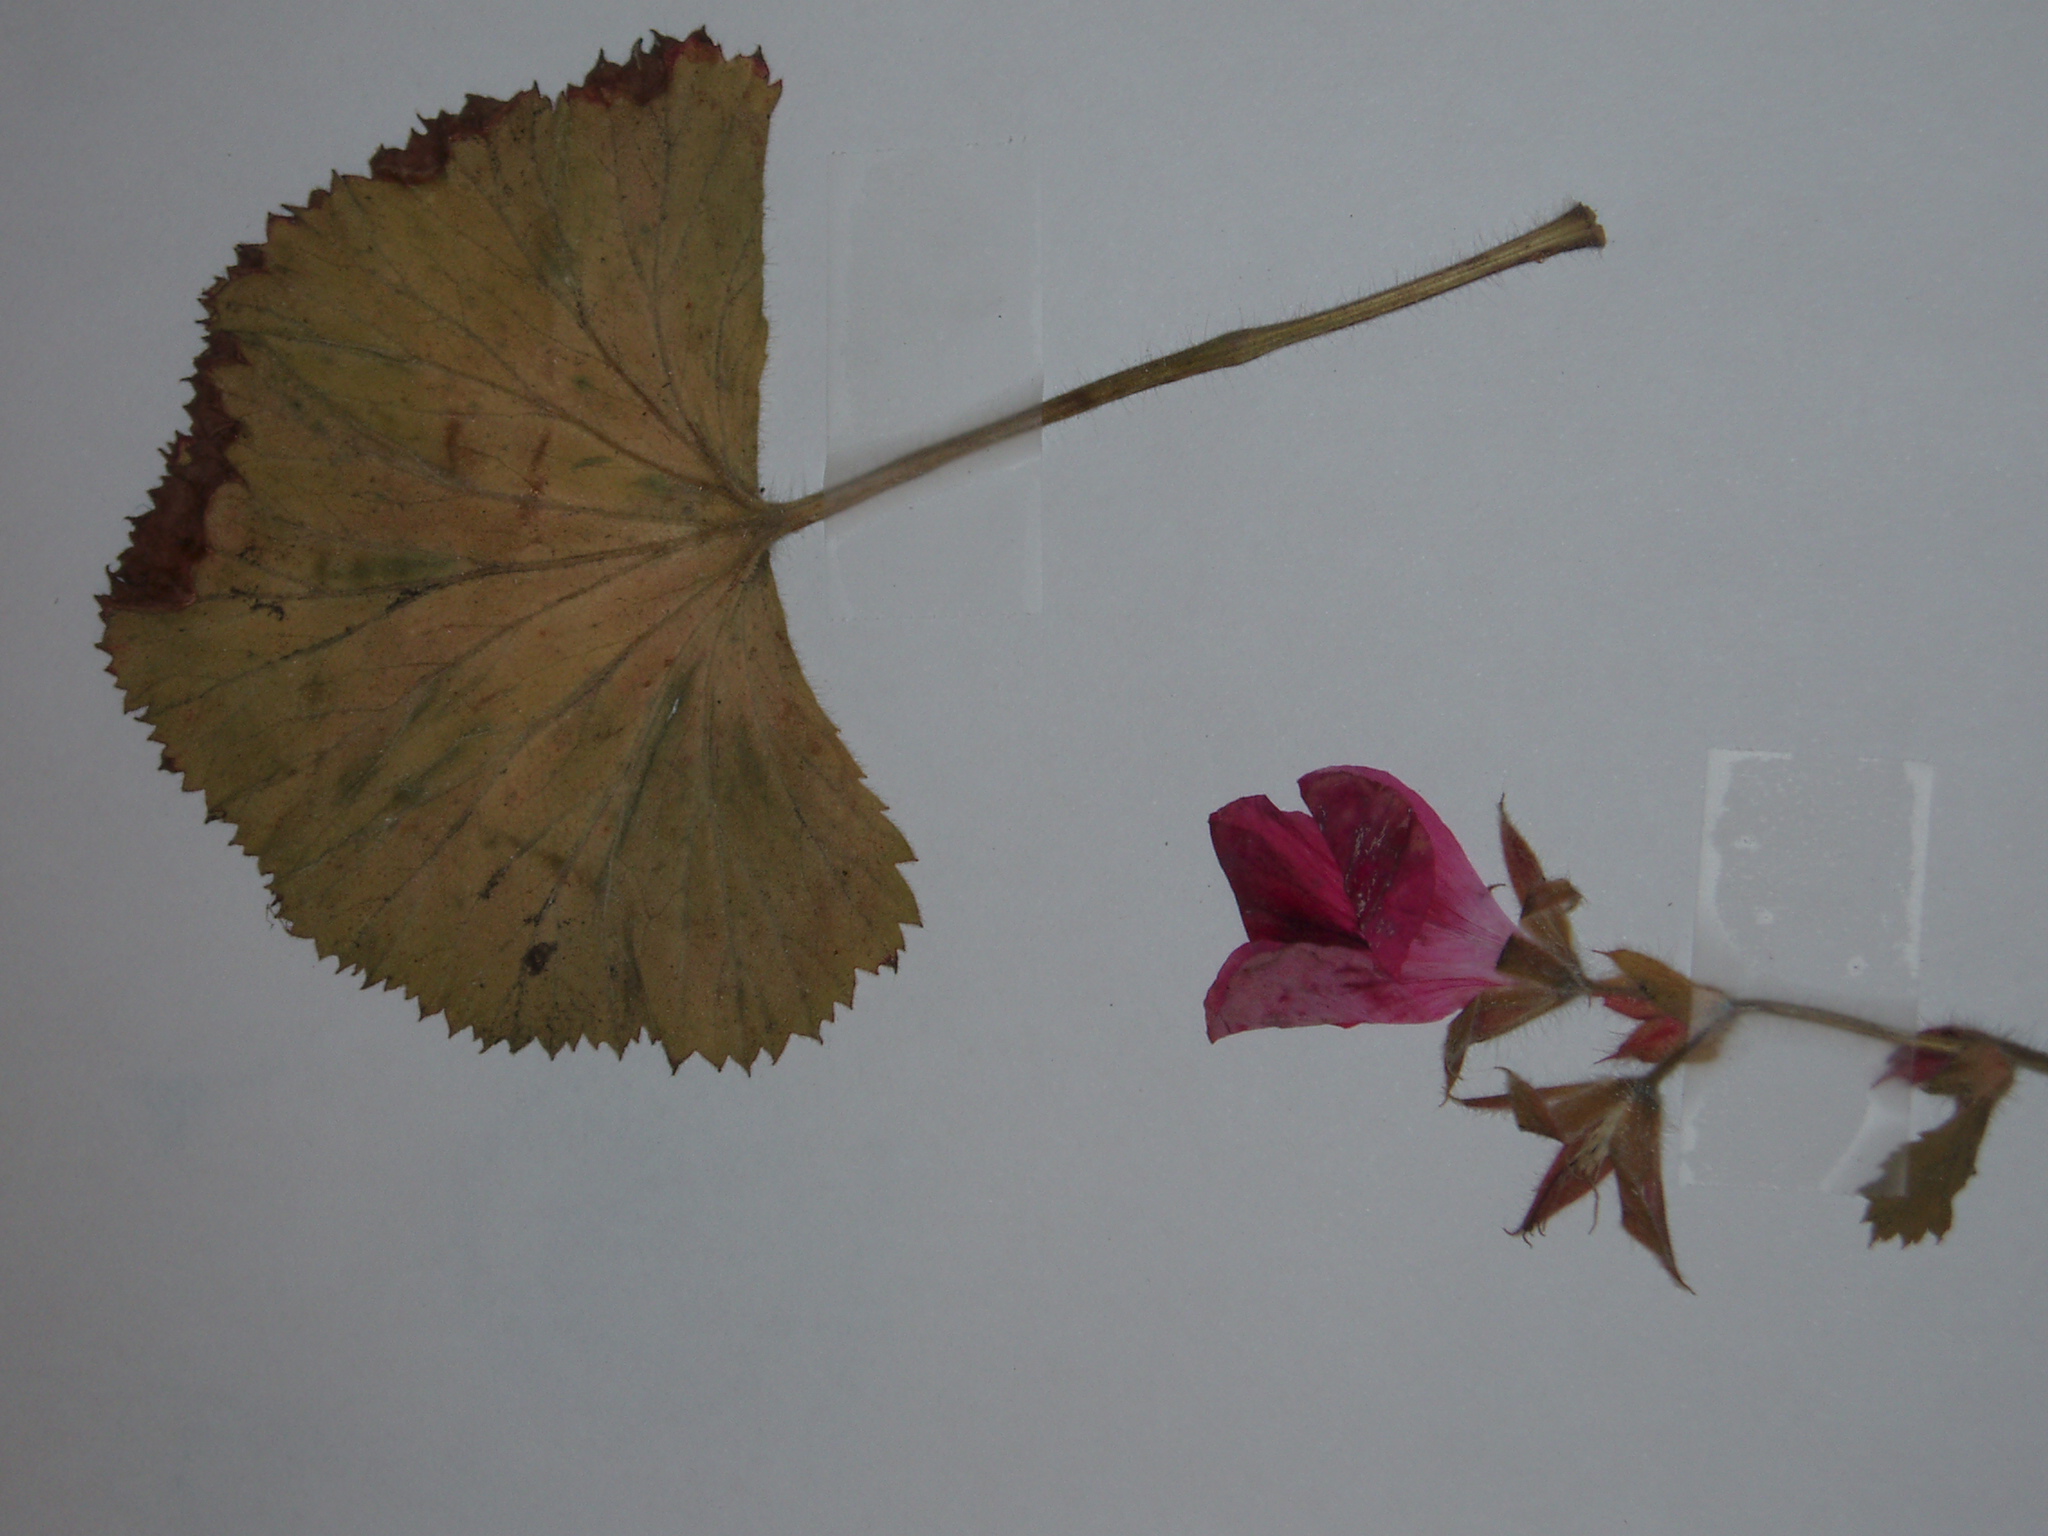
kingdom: Plantae
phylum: Tracheophyta
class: Magnoliopsida
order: Geraniales
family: Geraniaceae
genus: Pelargonium
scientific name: Pelargonium domesticum
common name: Regal pelargonium
